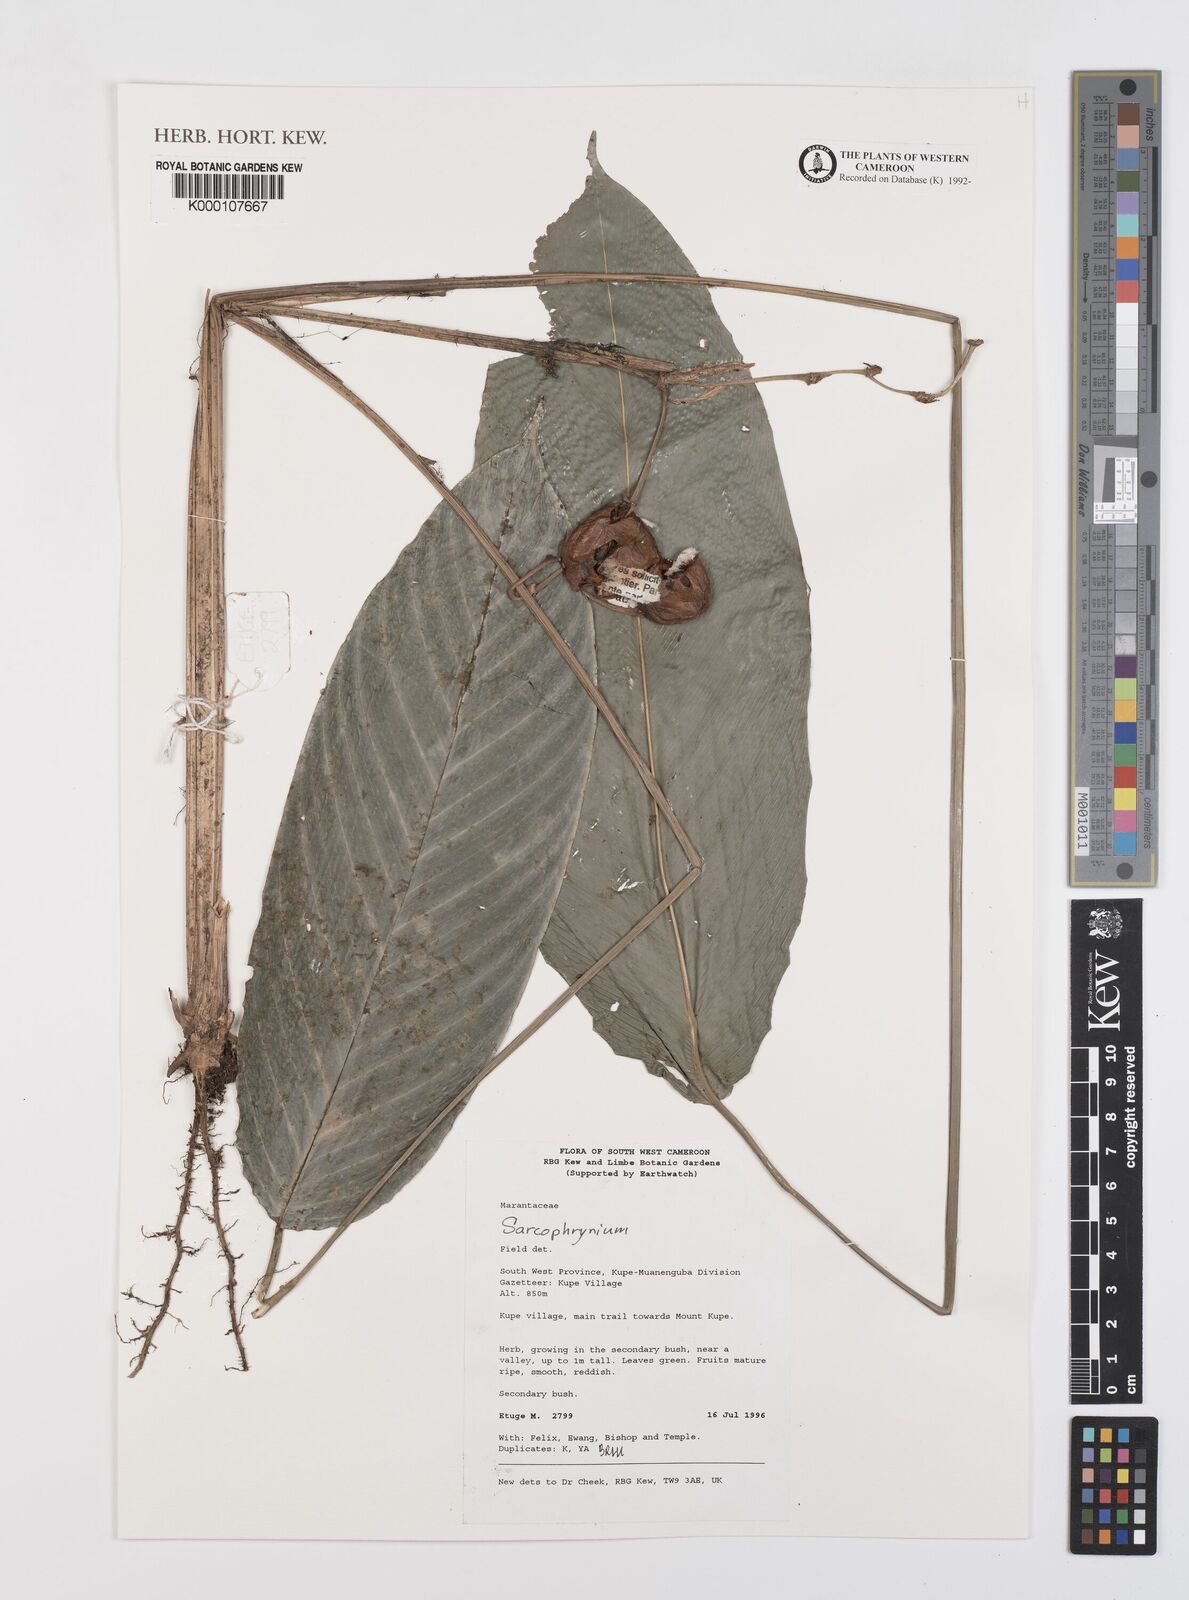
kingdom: Plantae
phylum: Tracheophyta
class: Liliopsida
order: Zingiberales
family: Marantaceae
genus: Sarcophrynium
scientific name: Sarcophrynium
